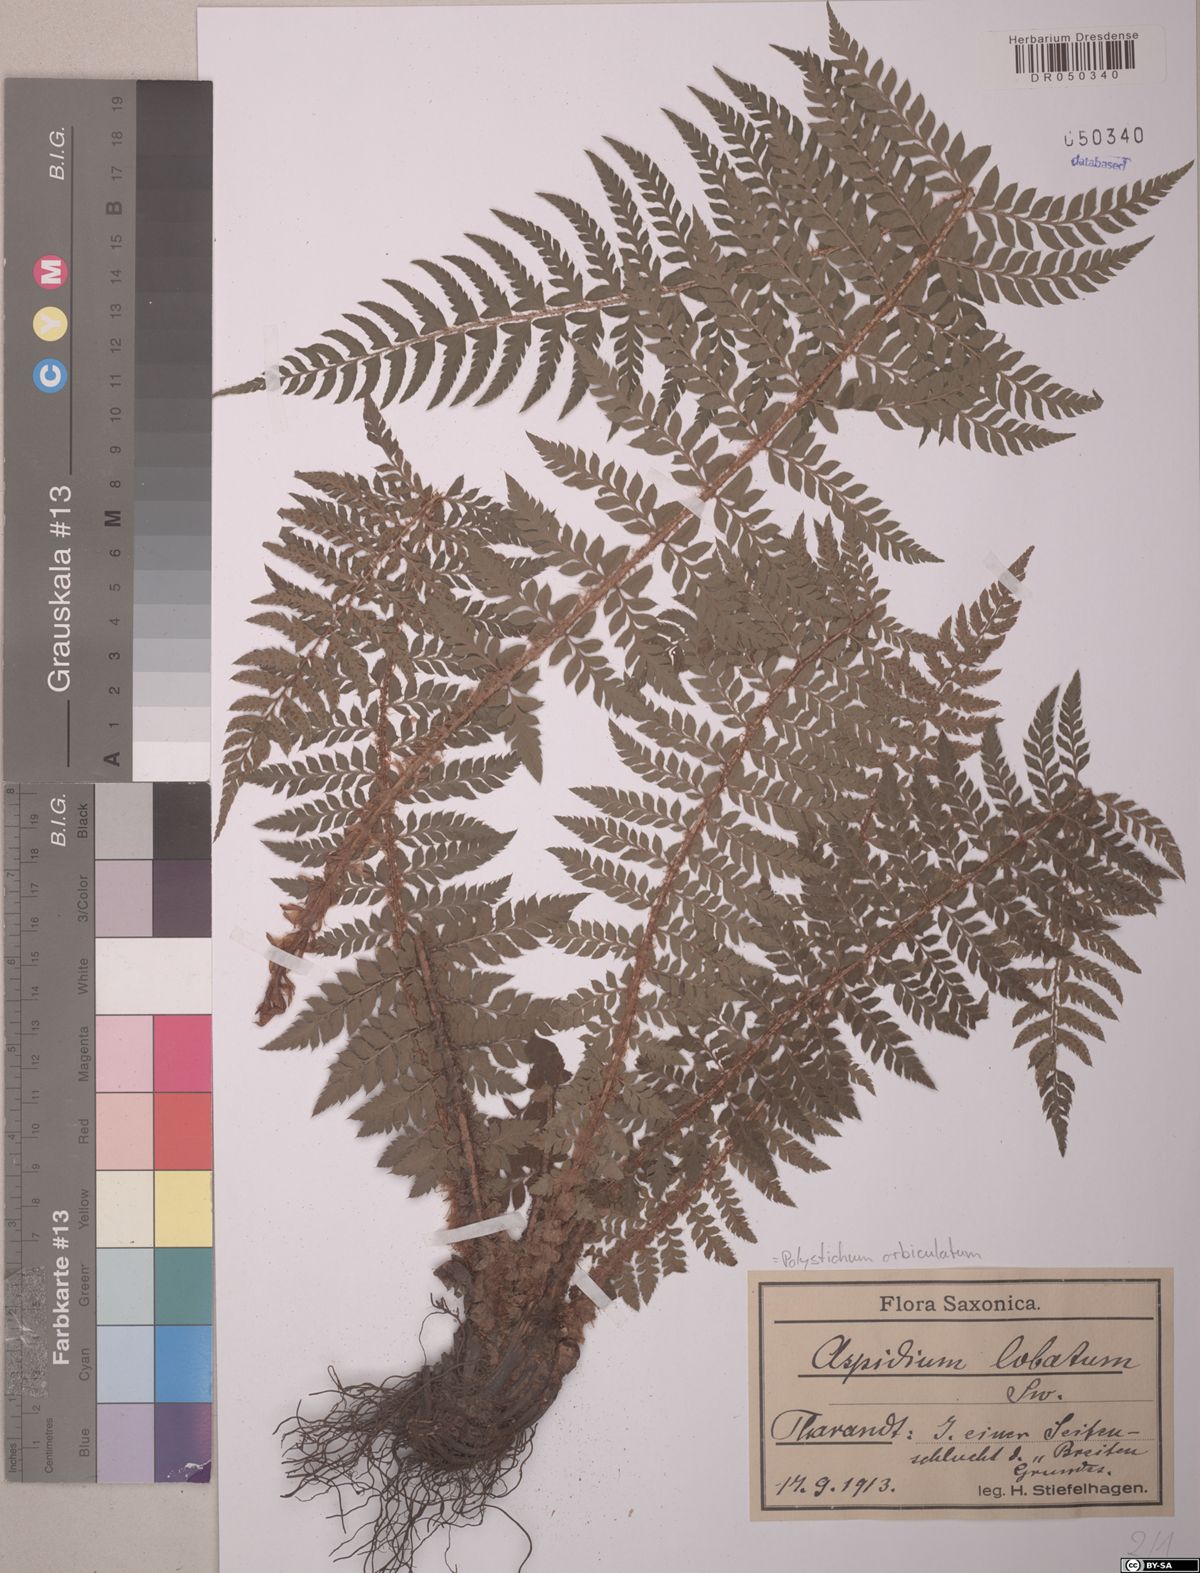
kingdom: Plantae
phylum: Tracheophyta
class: Polypodiopsida
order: Polypodiales
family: Dryopteridaceae
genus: Polystichum
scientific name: Polystichum aculeatum
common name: Hard shield-fern
